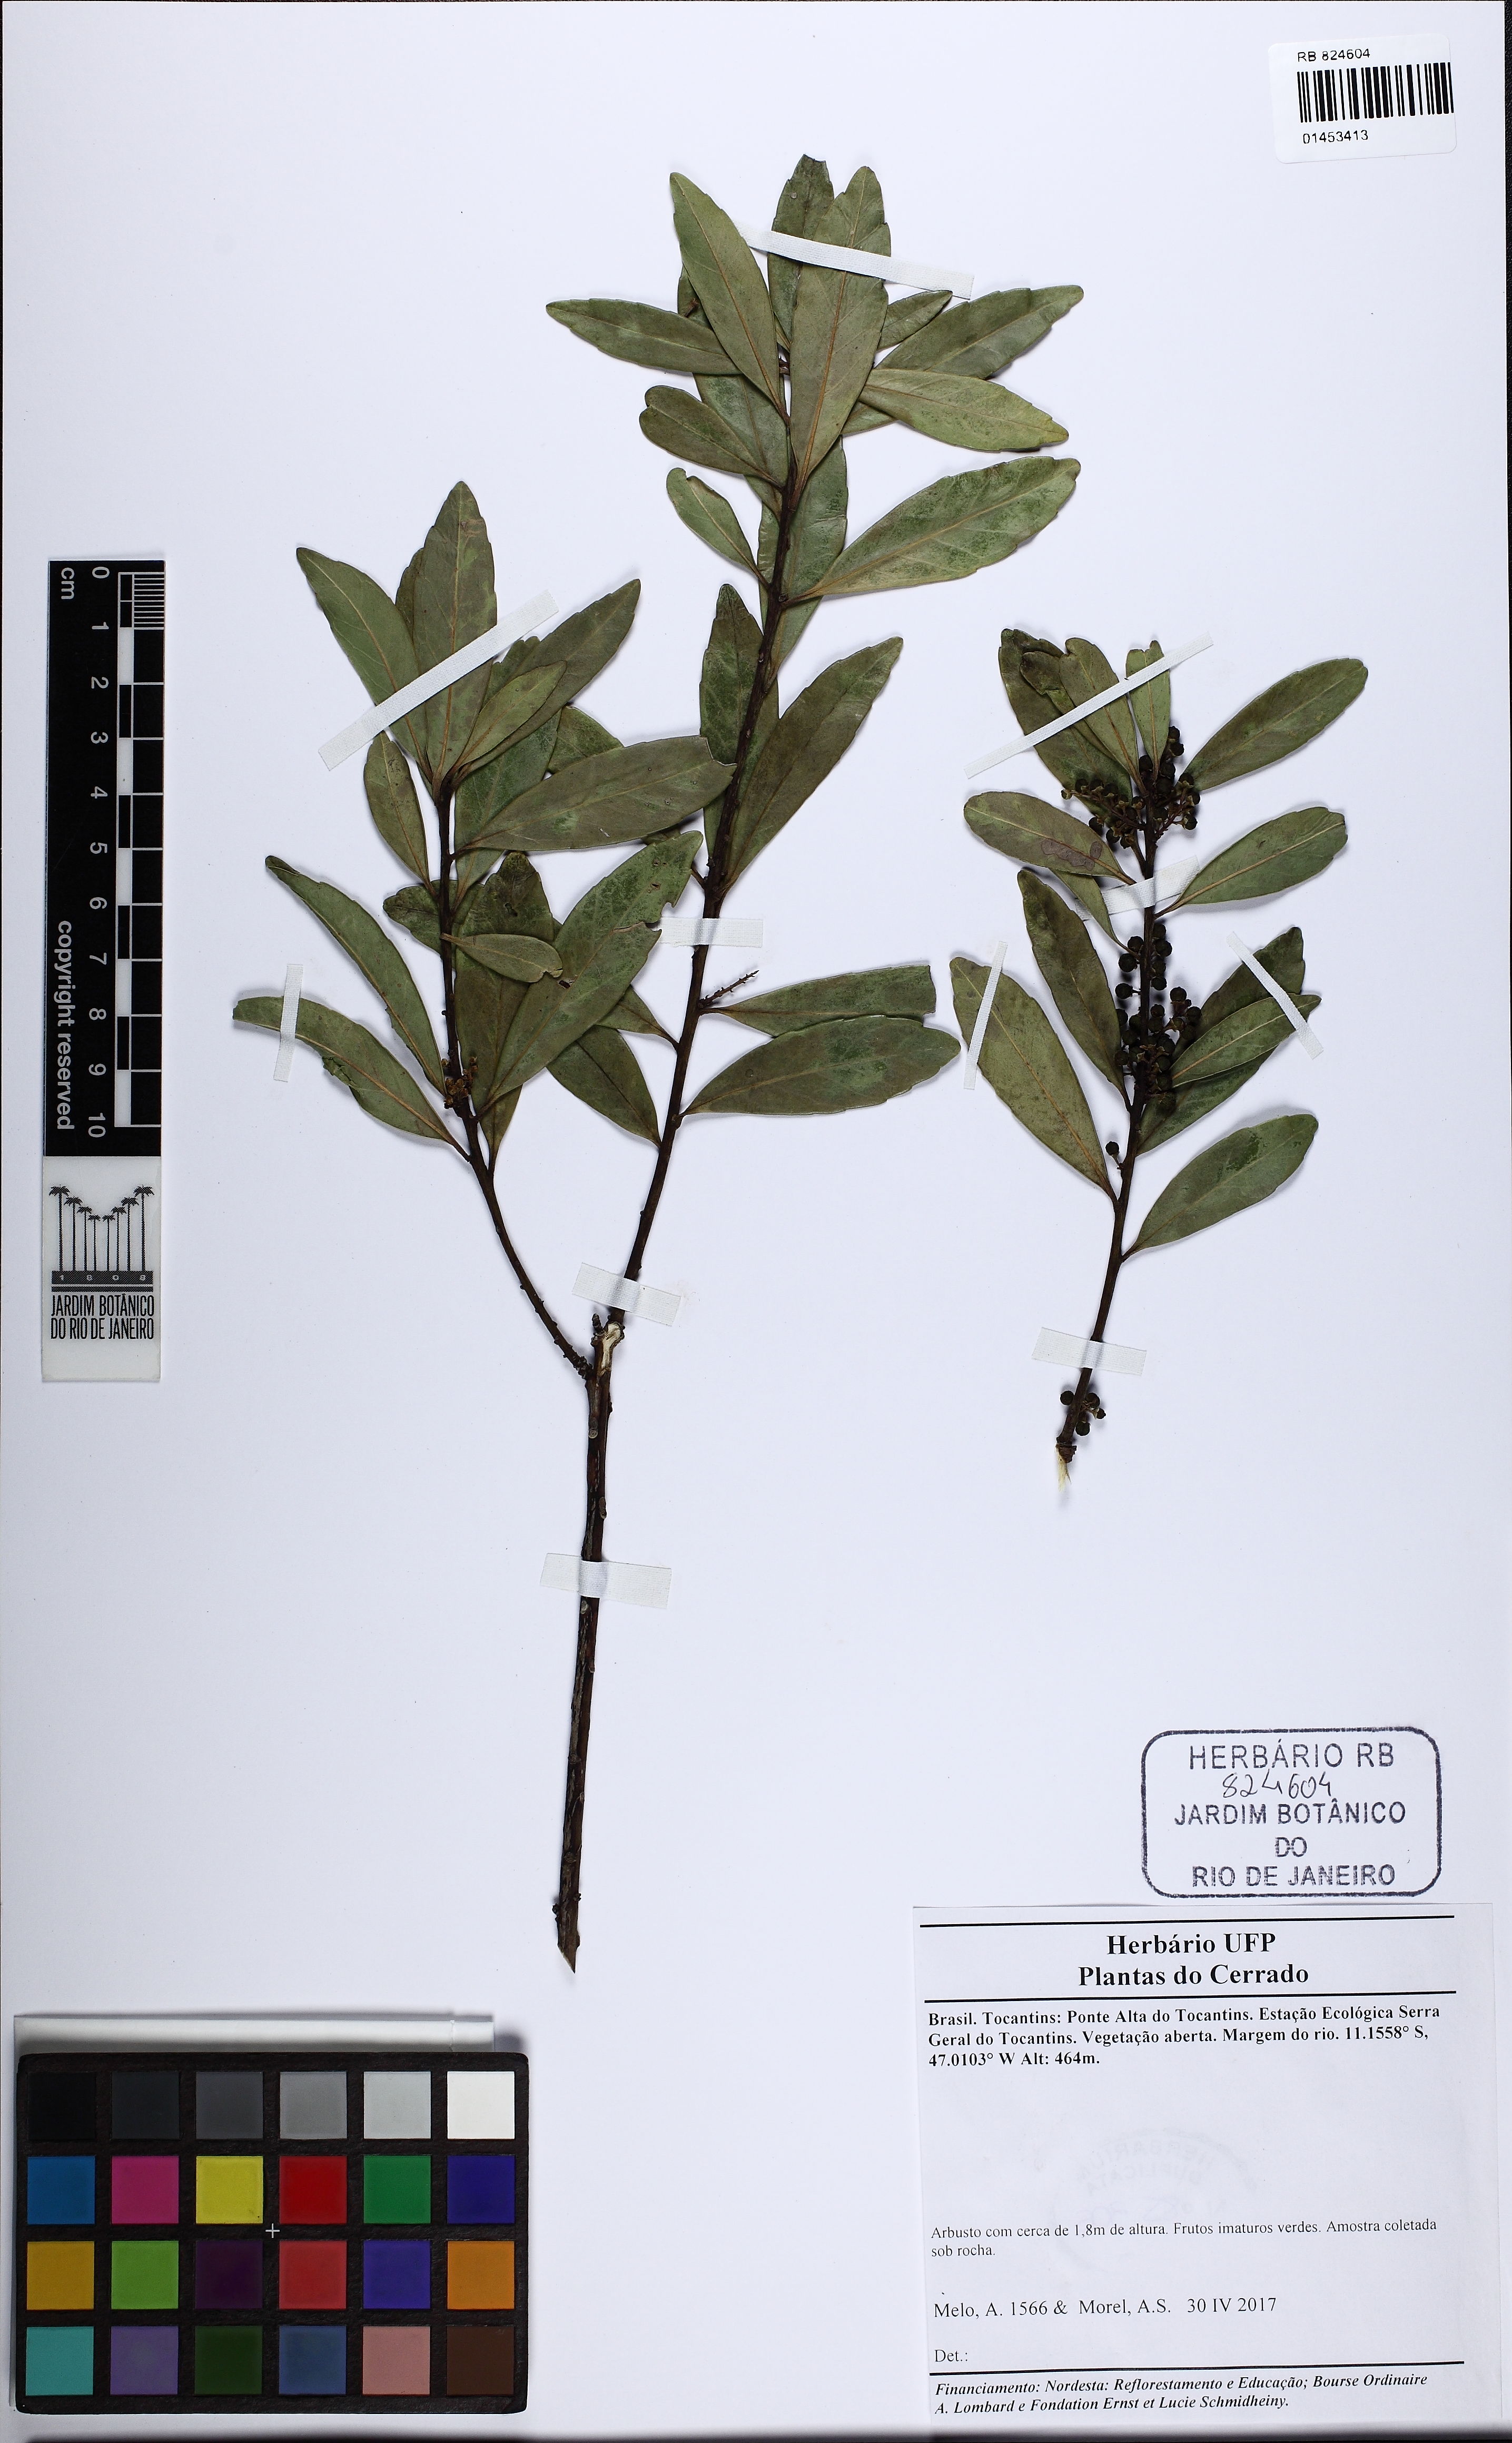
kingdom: Plantae
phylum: Tracheophyta
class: Magnoliopsida
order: Aquifoliales
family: Aquifoliaceae
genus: Ilex
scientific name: Ilex
